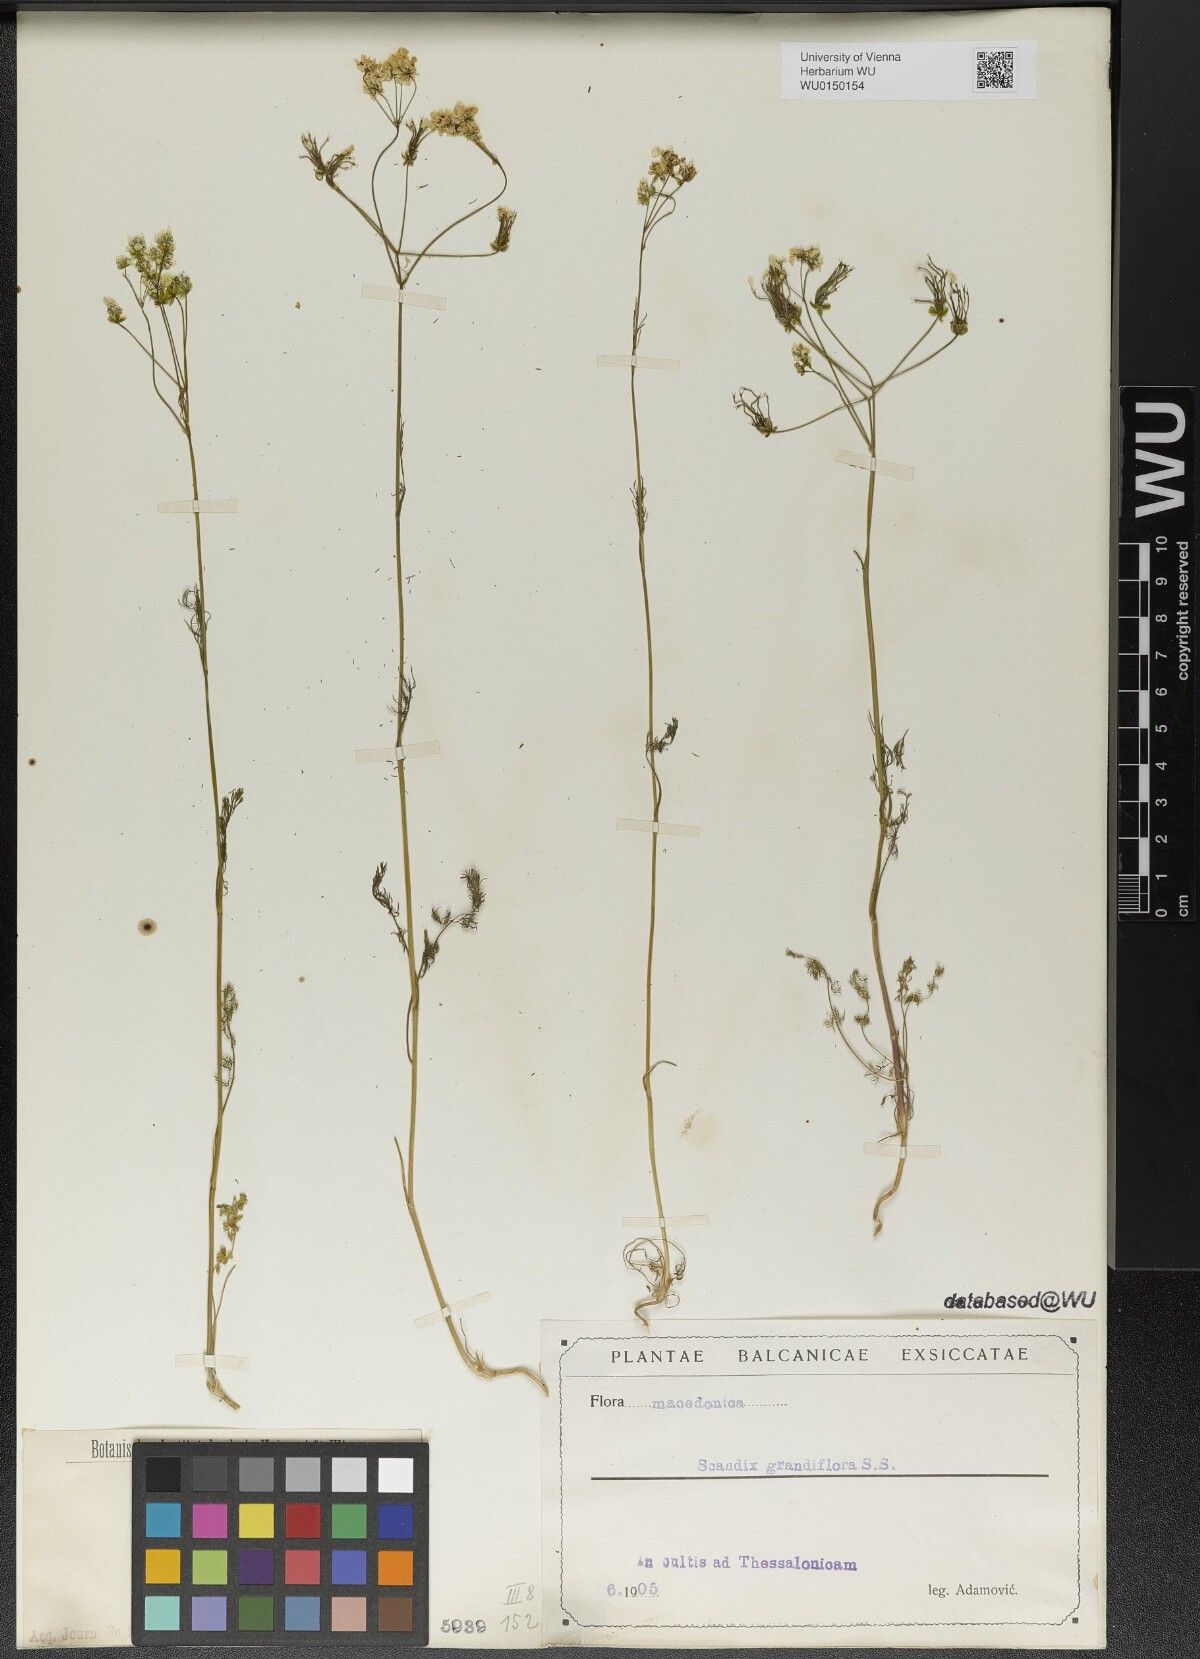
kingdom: Plantae
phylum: Tracheophyta
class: Magnoliopsida
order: Apiales
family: Apiaceae
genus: Scandix
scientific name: Scandix australis
